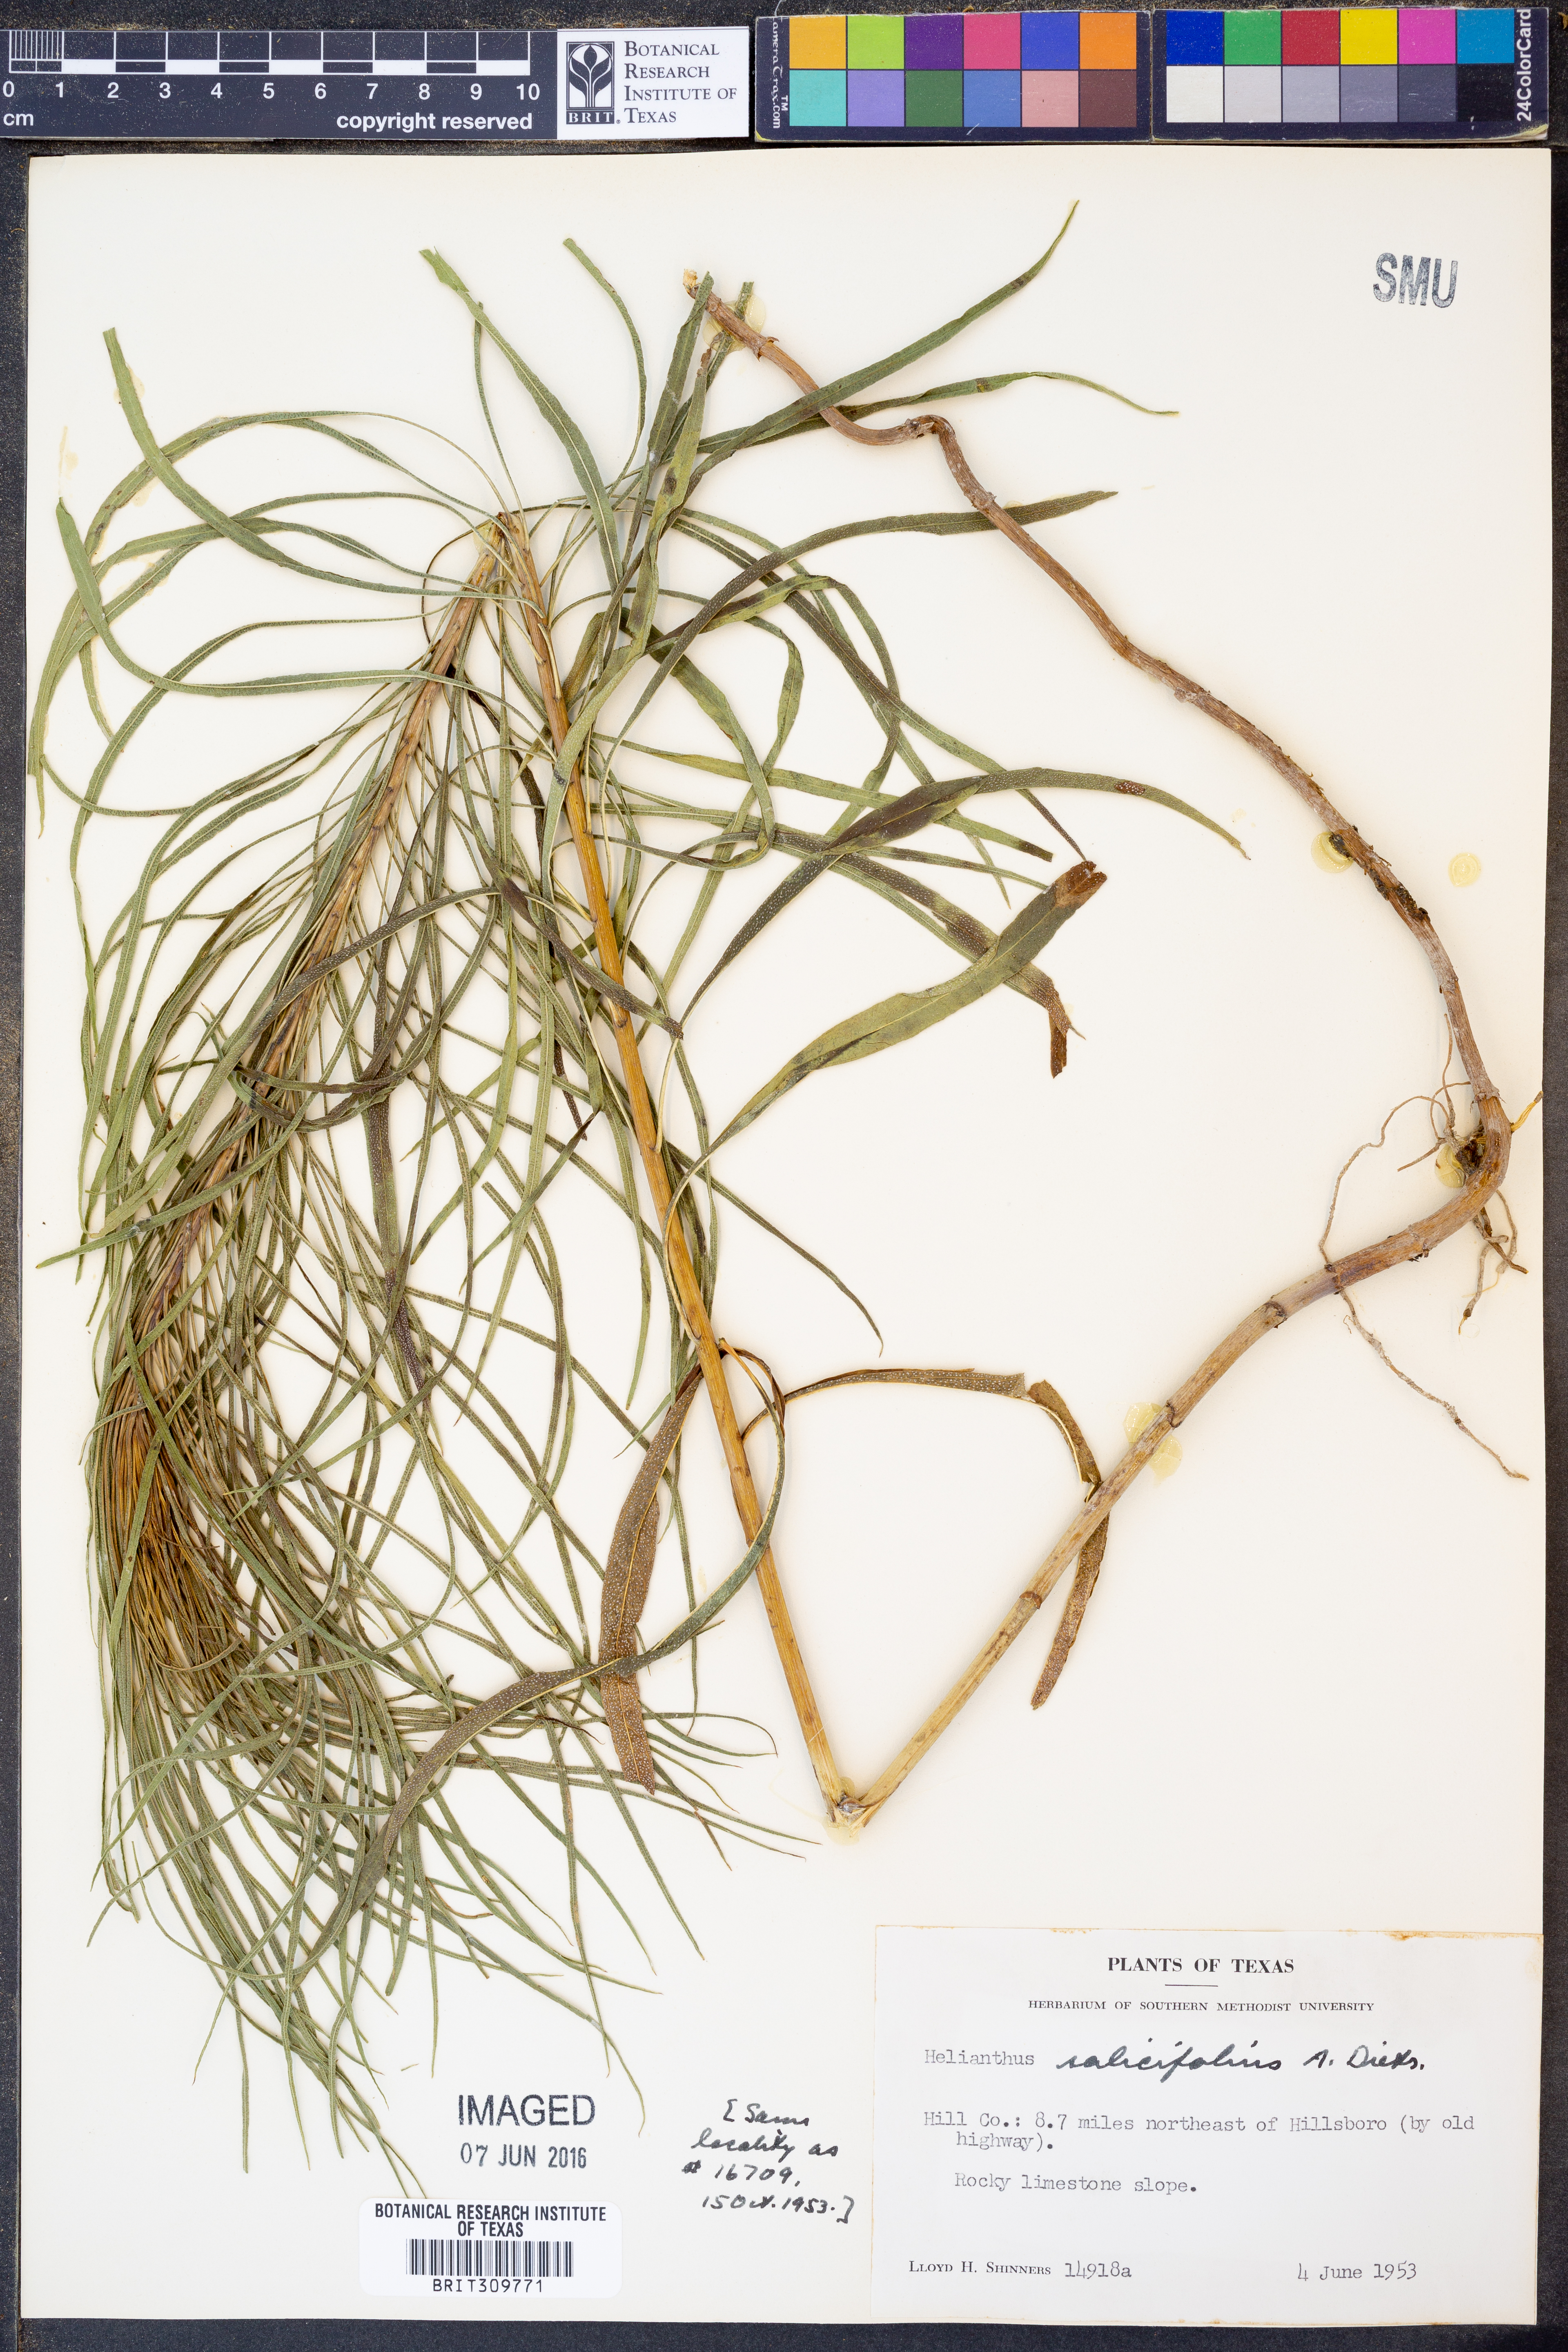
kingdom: Plantae
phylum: Tracheophyta
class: Magnoliopsida
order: Asterales
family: Asteraceae
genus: Helianthus
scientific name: Helianthus salicifolius
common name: Willowleaf sunflower
